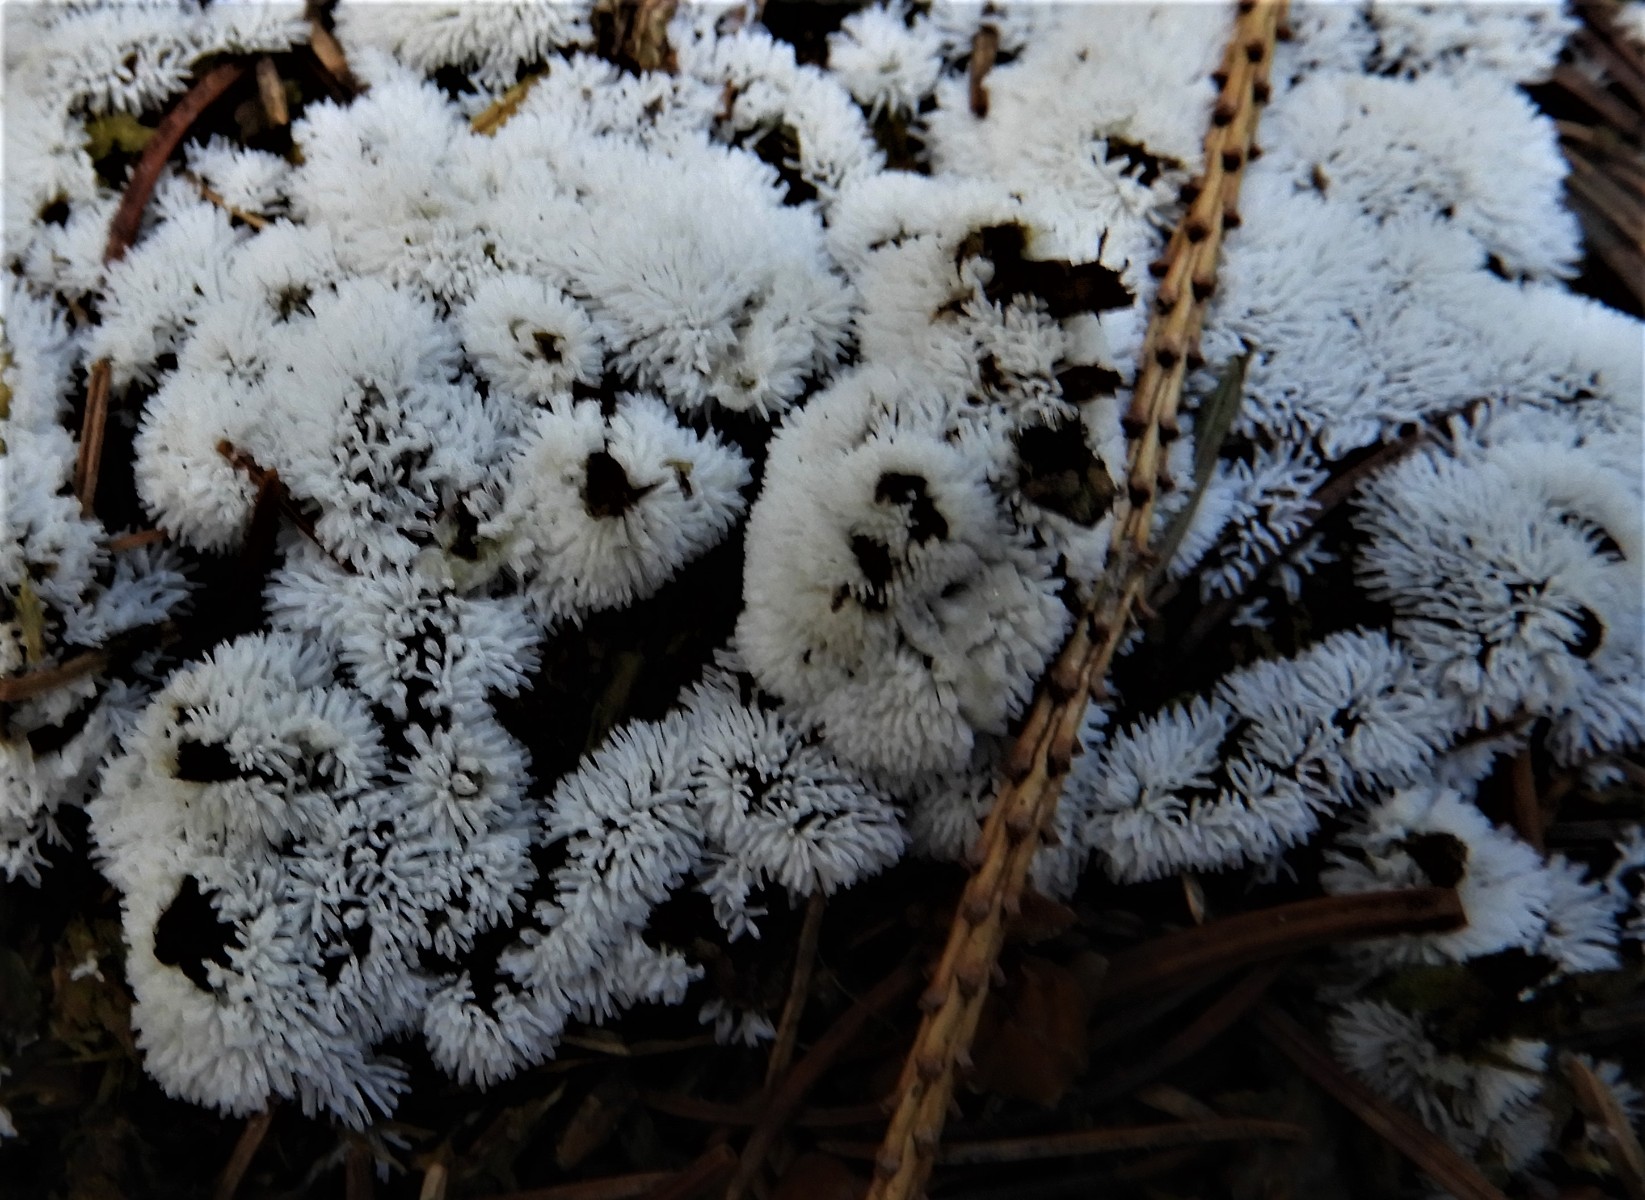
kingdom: Protozoa
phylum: Mycetozoa
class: Protosteliomycetes
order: Ceratiomyxales
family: Ceratiomyxaceae
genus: Ceratiomyxa
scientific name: Ceratiomyxa fruticulosa
